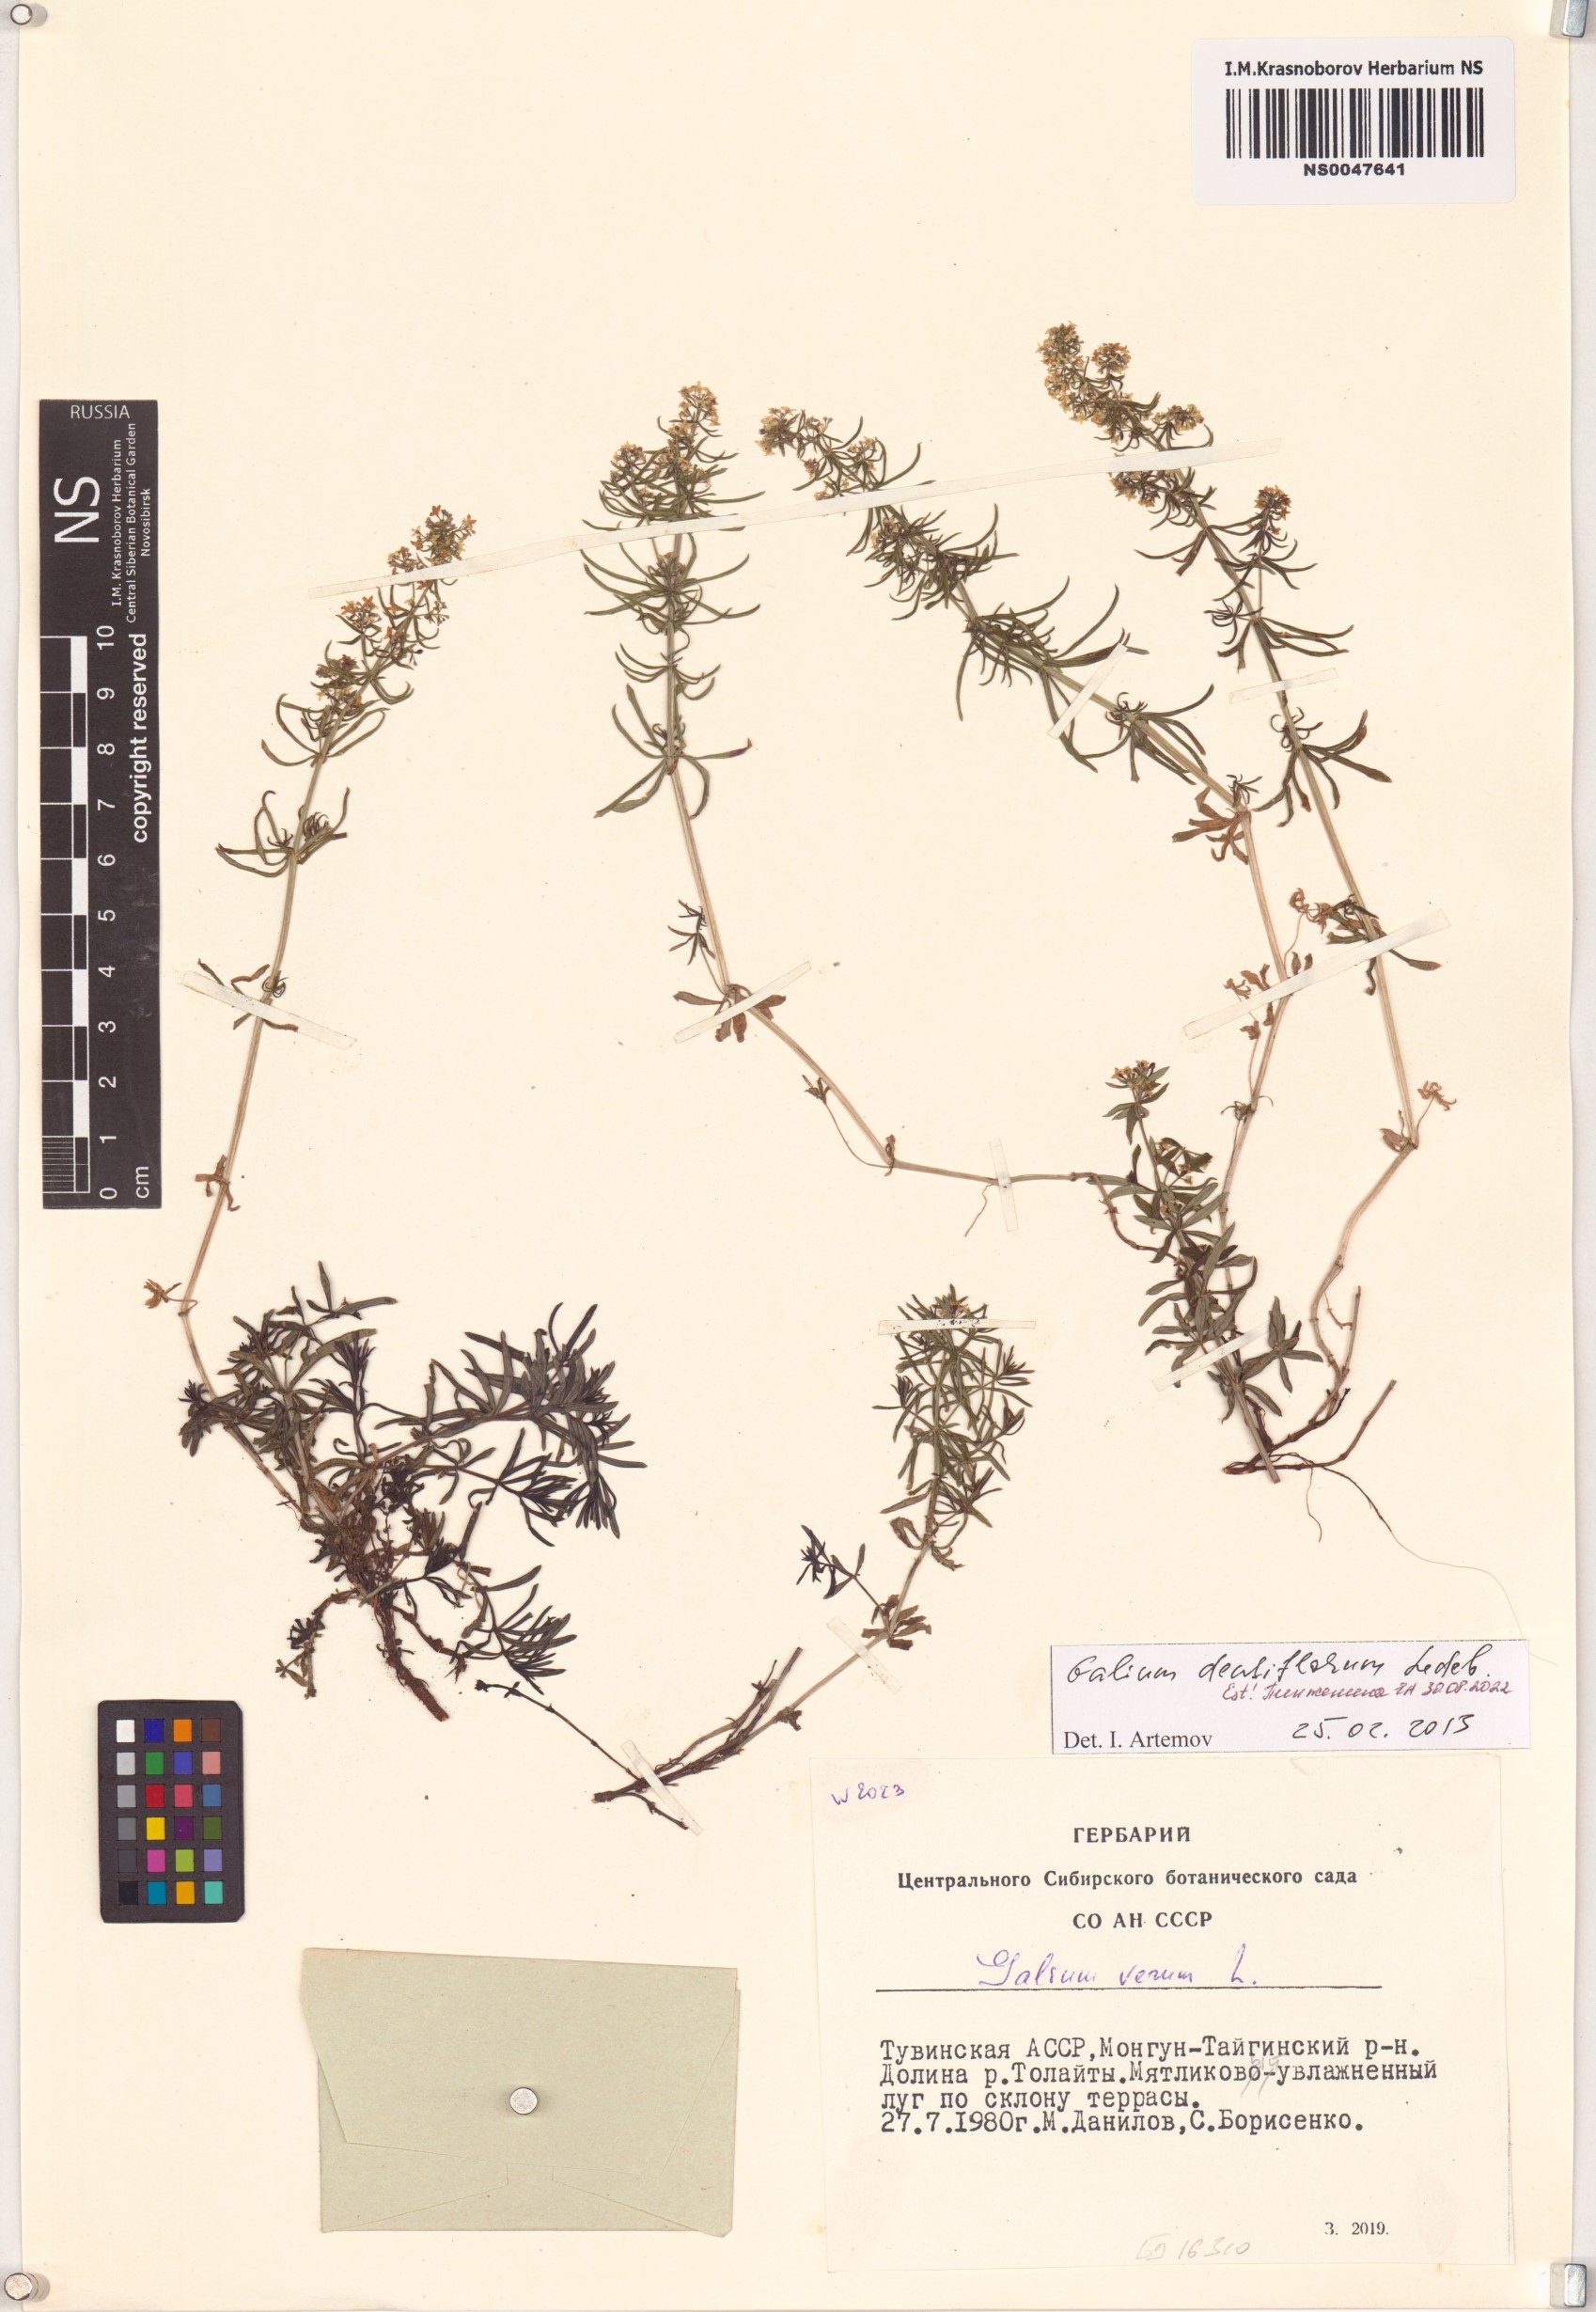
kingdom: Plantae
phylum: Tracheophyta
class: Magnoliopsida
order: Gentianales
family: Rubiaceae
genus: Galium
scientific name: Galium densiflorum
